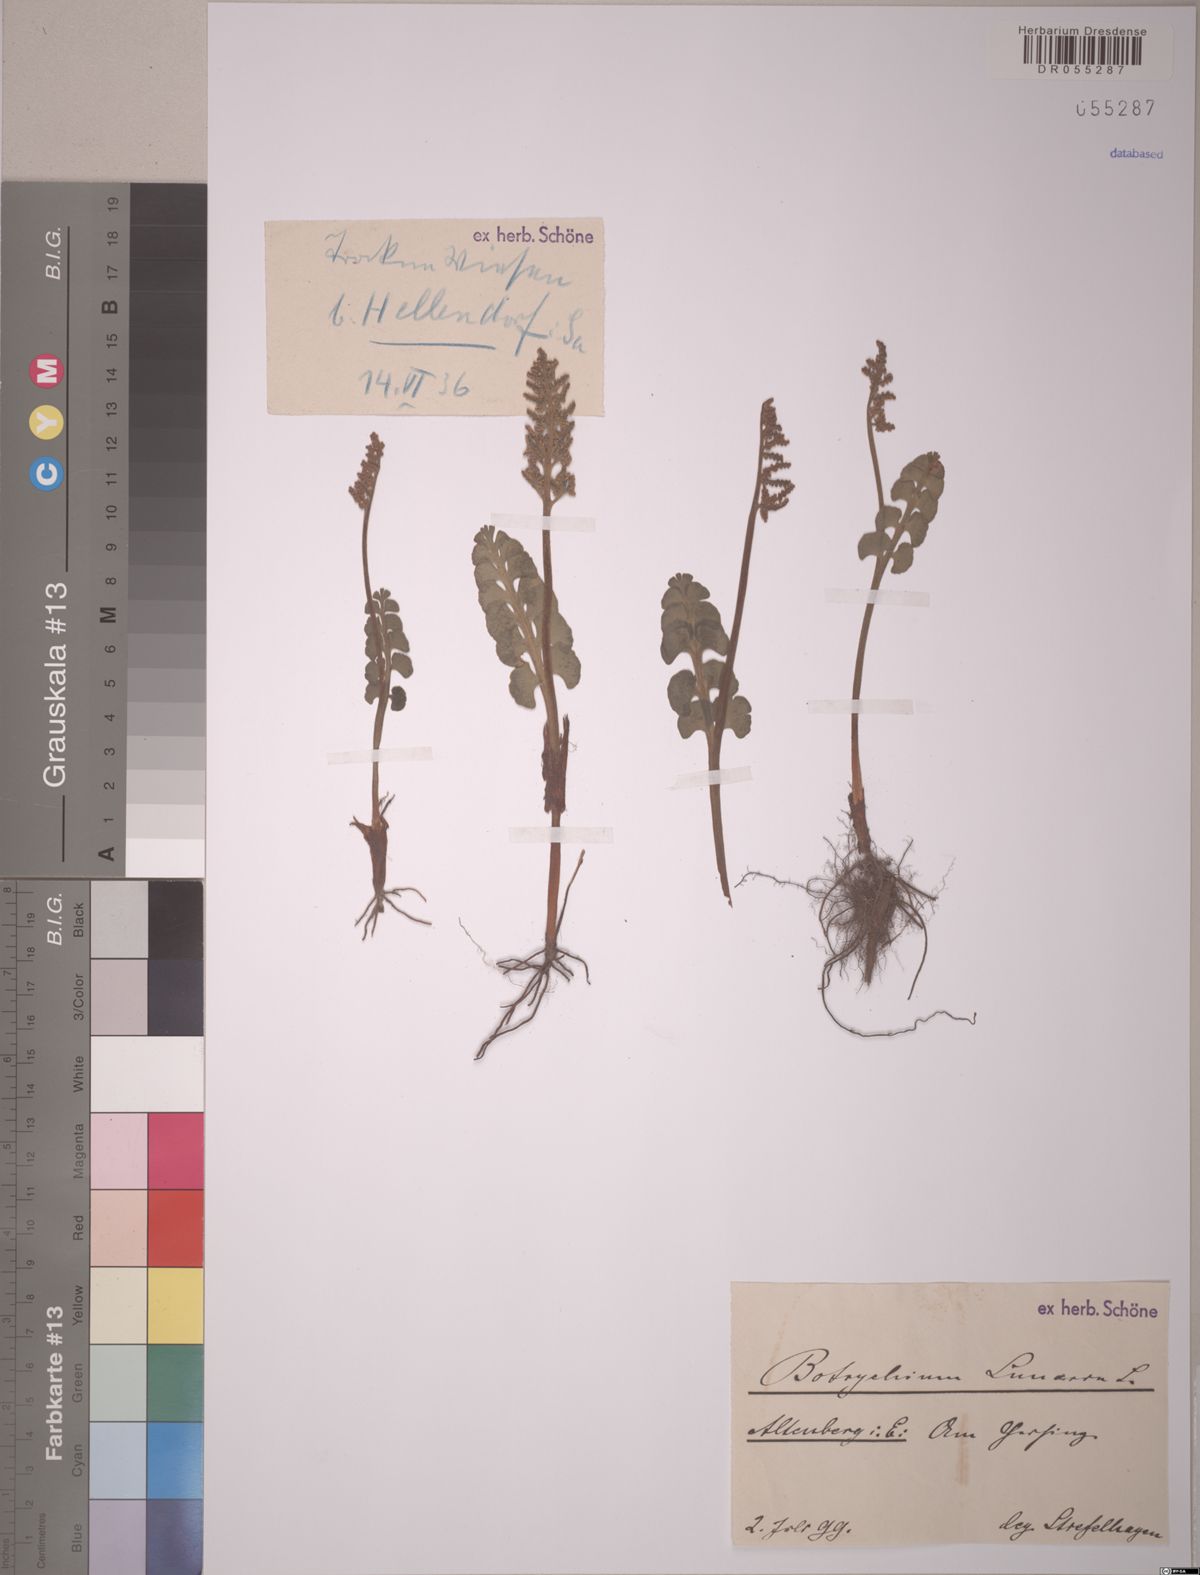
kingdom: Plantae
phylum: Tracheophyta
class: Polypodiopsida
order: Ophioglossales
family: Ophioglossaceae
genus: Botrychium
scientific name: Botrychium lunaria
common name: Moonwort
